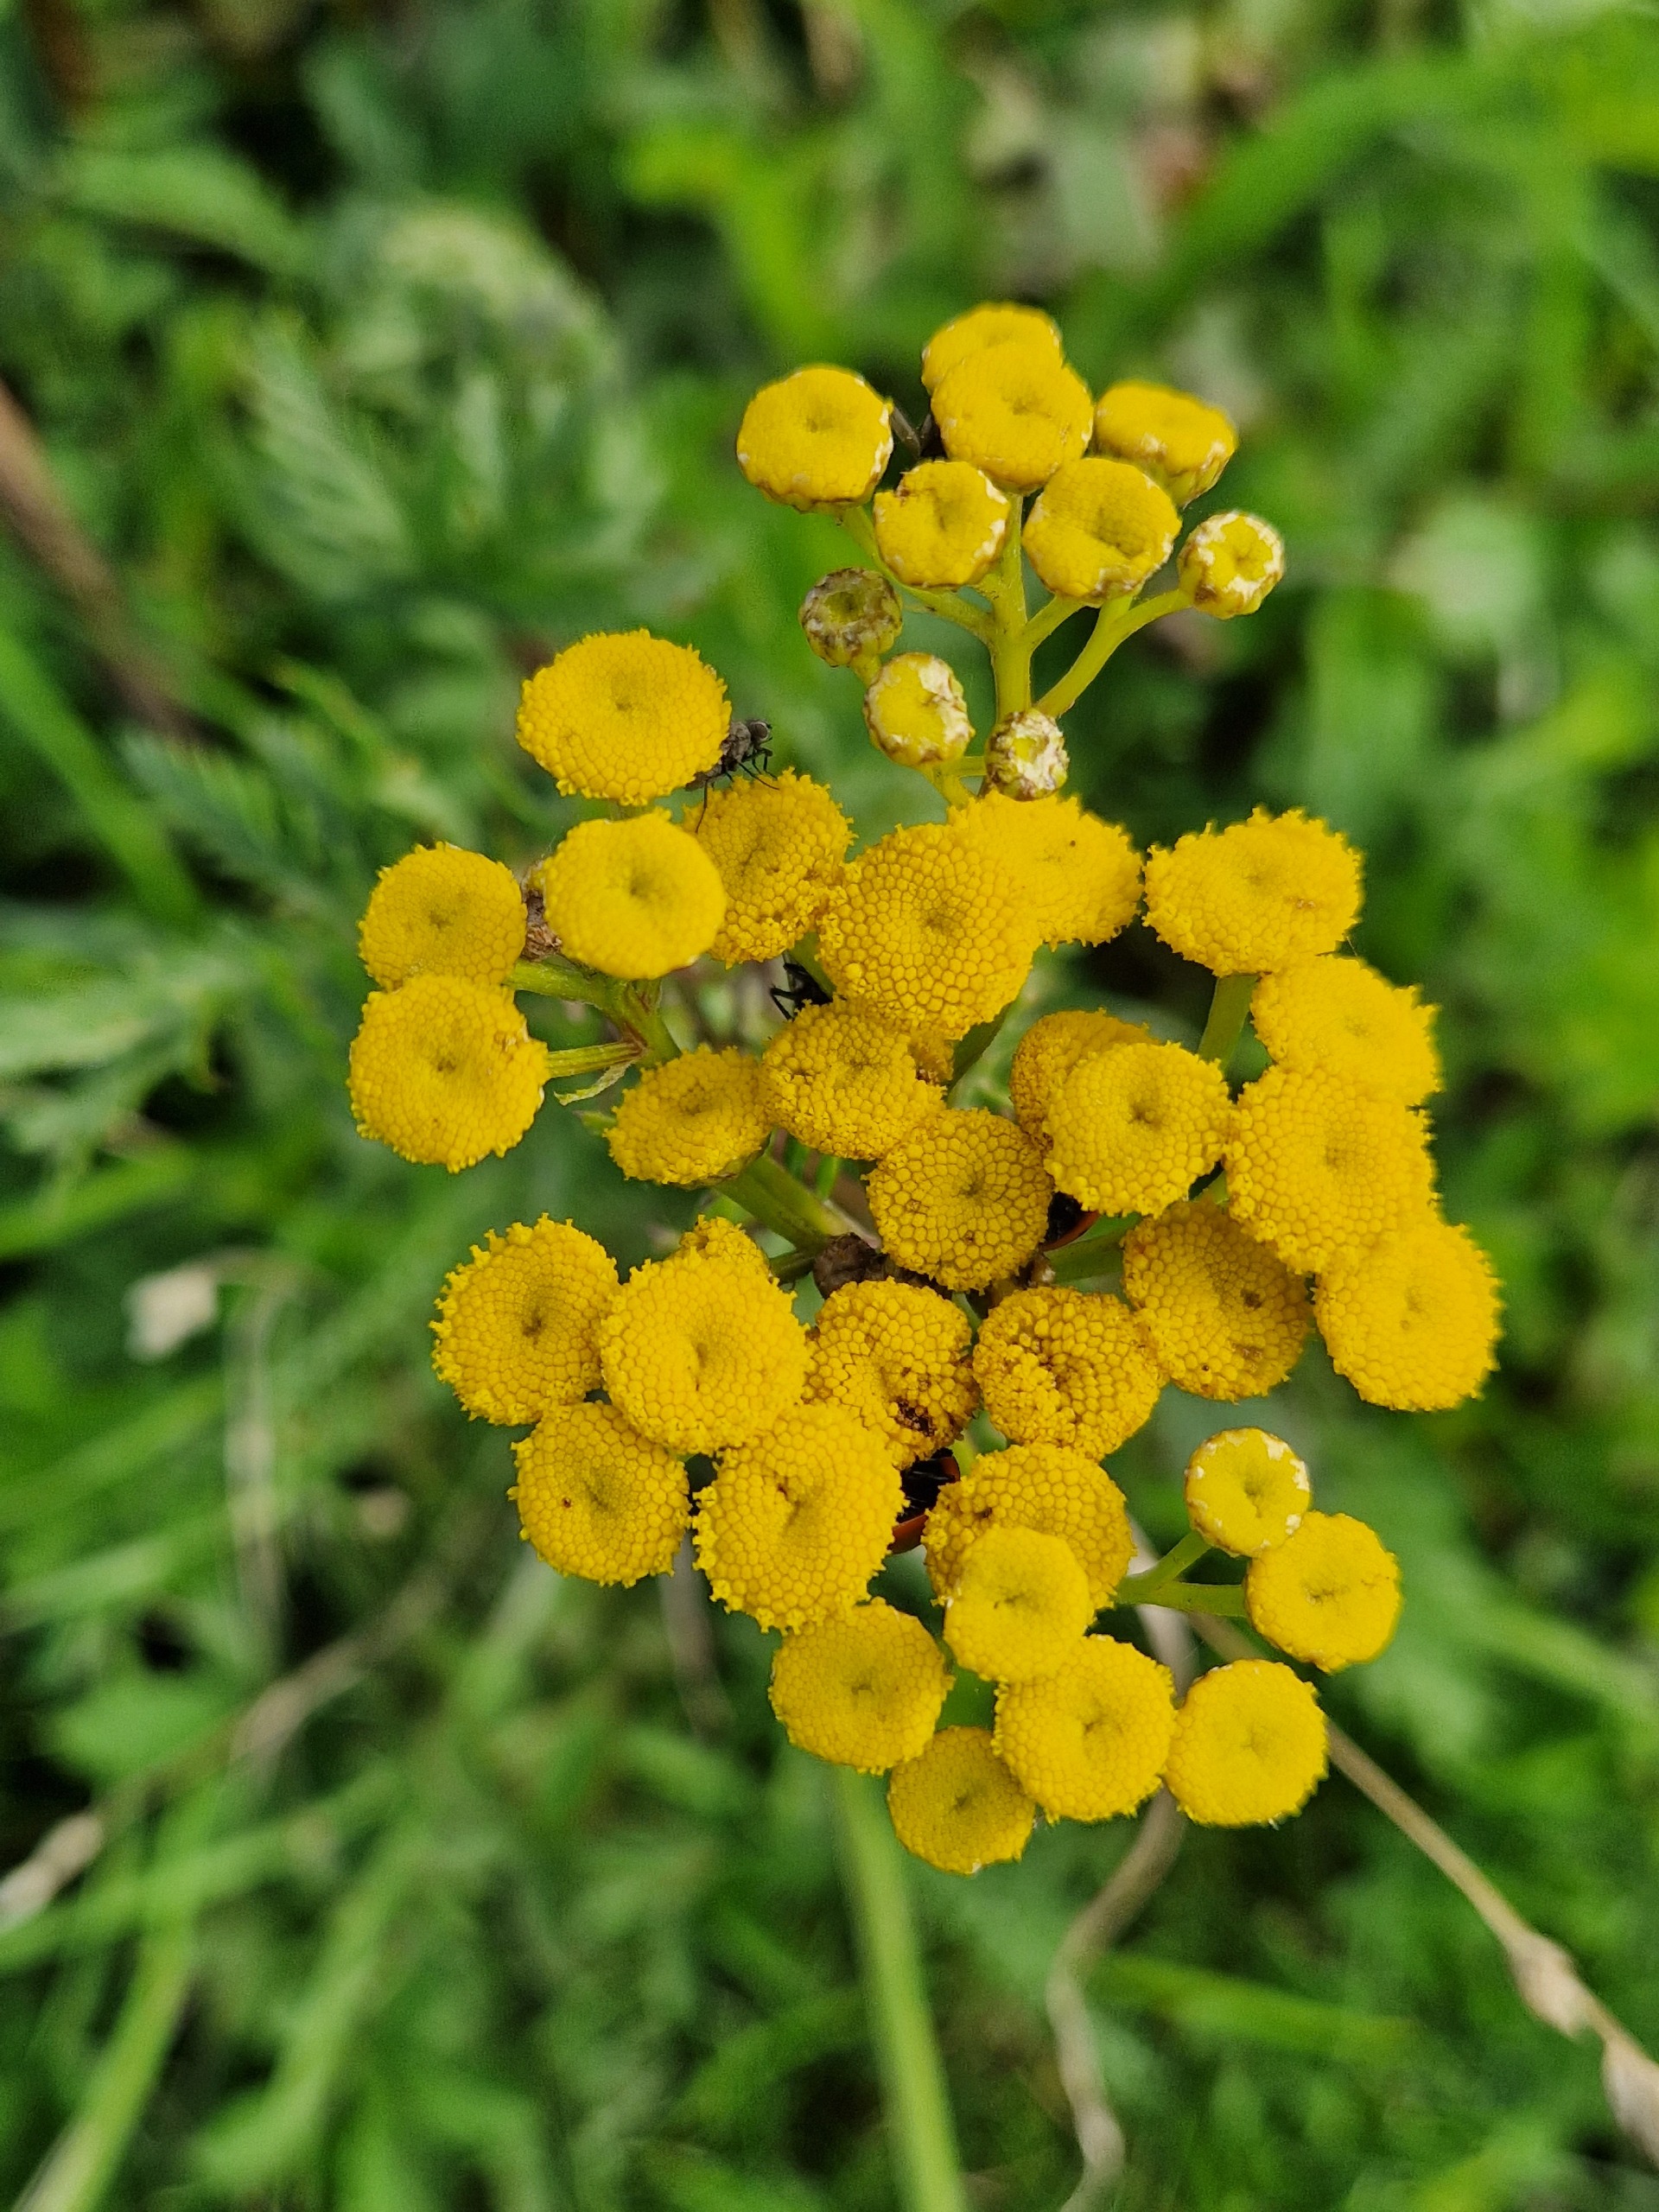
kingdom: Plantae
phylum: Tracheophyta
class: Magnoliopsida
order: Asterales
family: Asteraceae
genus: Tanacetum
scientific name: Tanacetum vulgare
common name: Rejnfan
